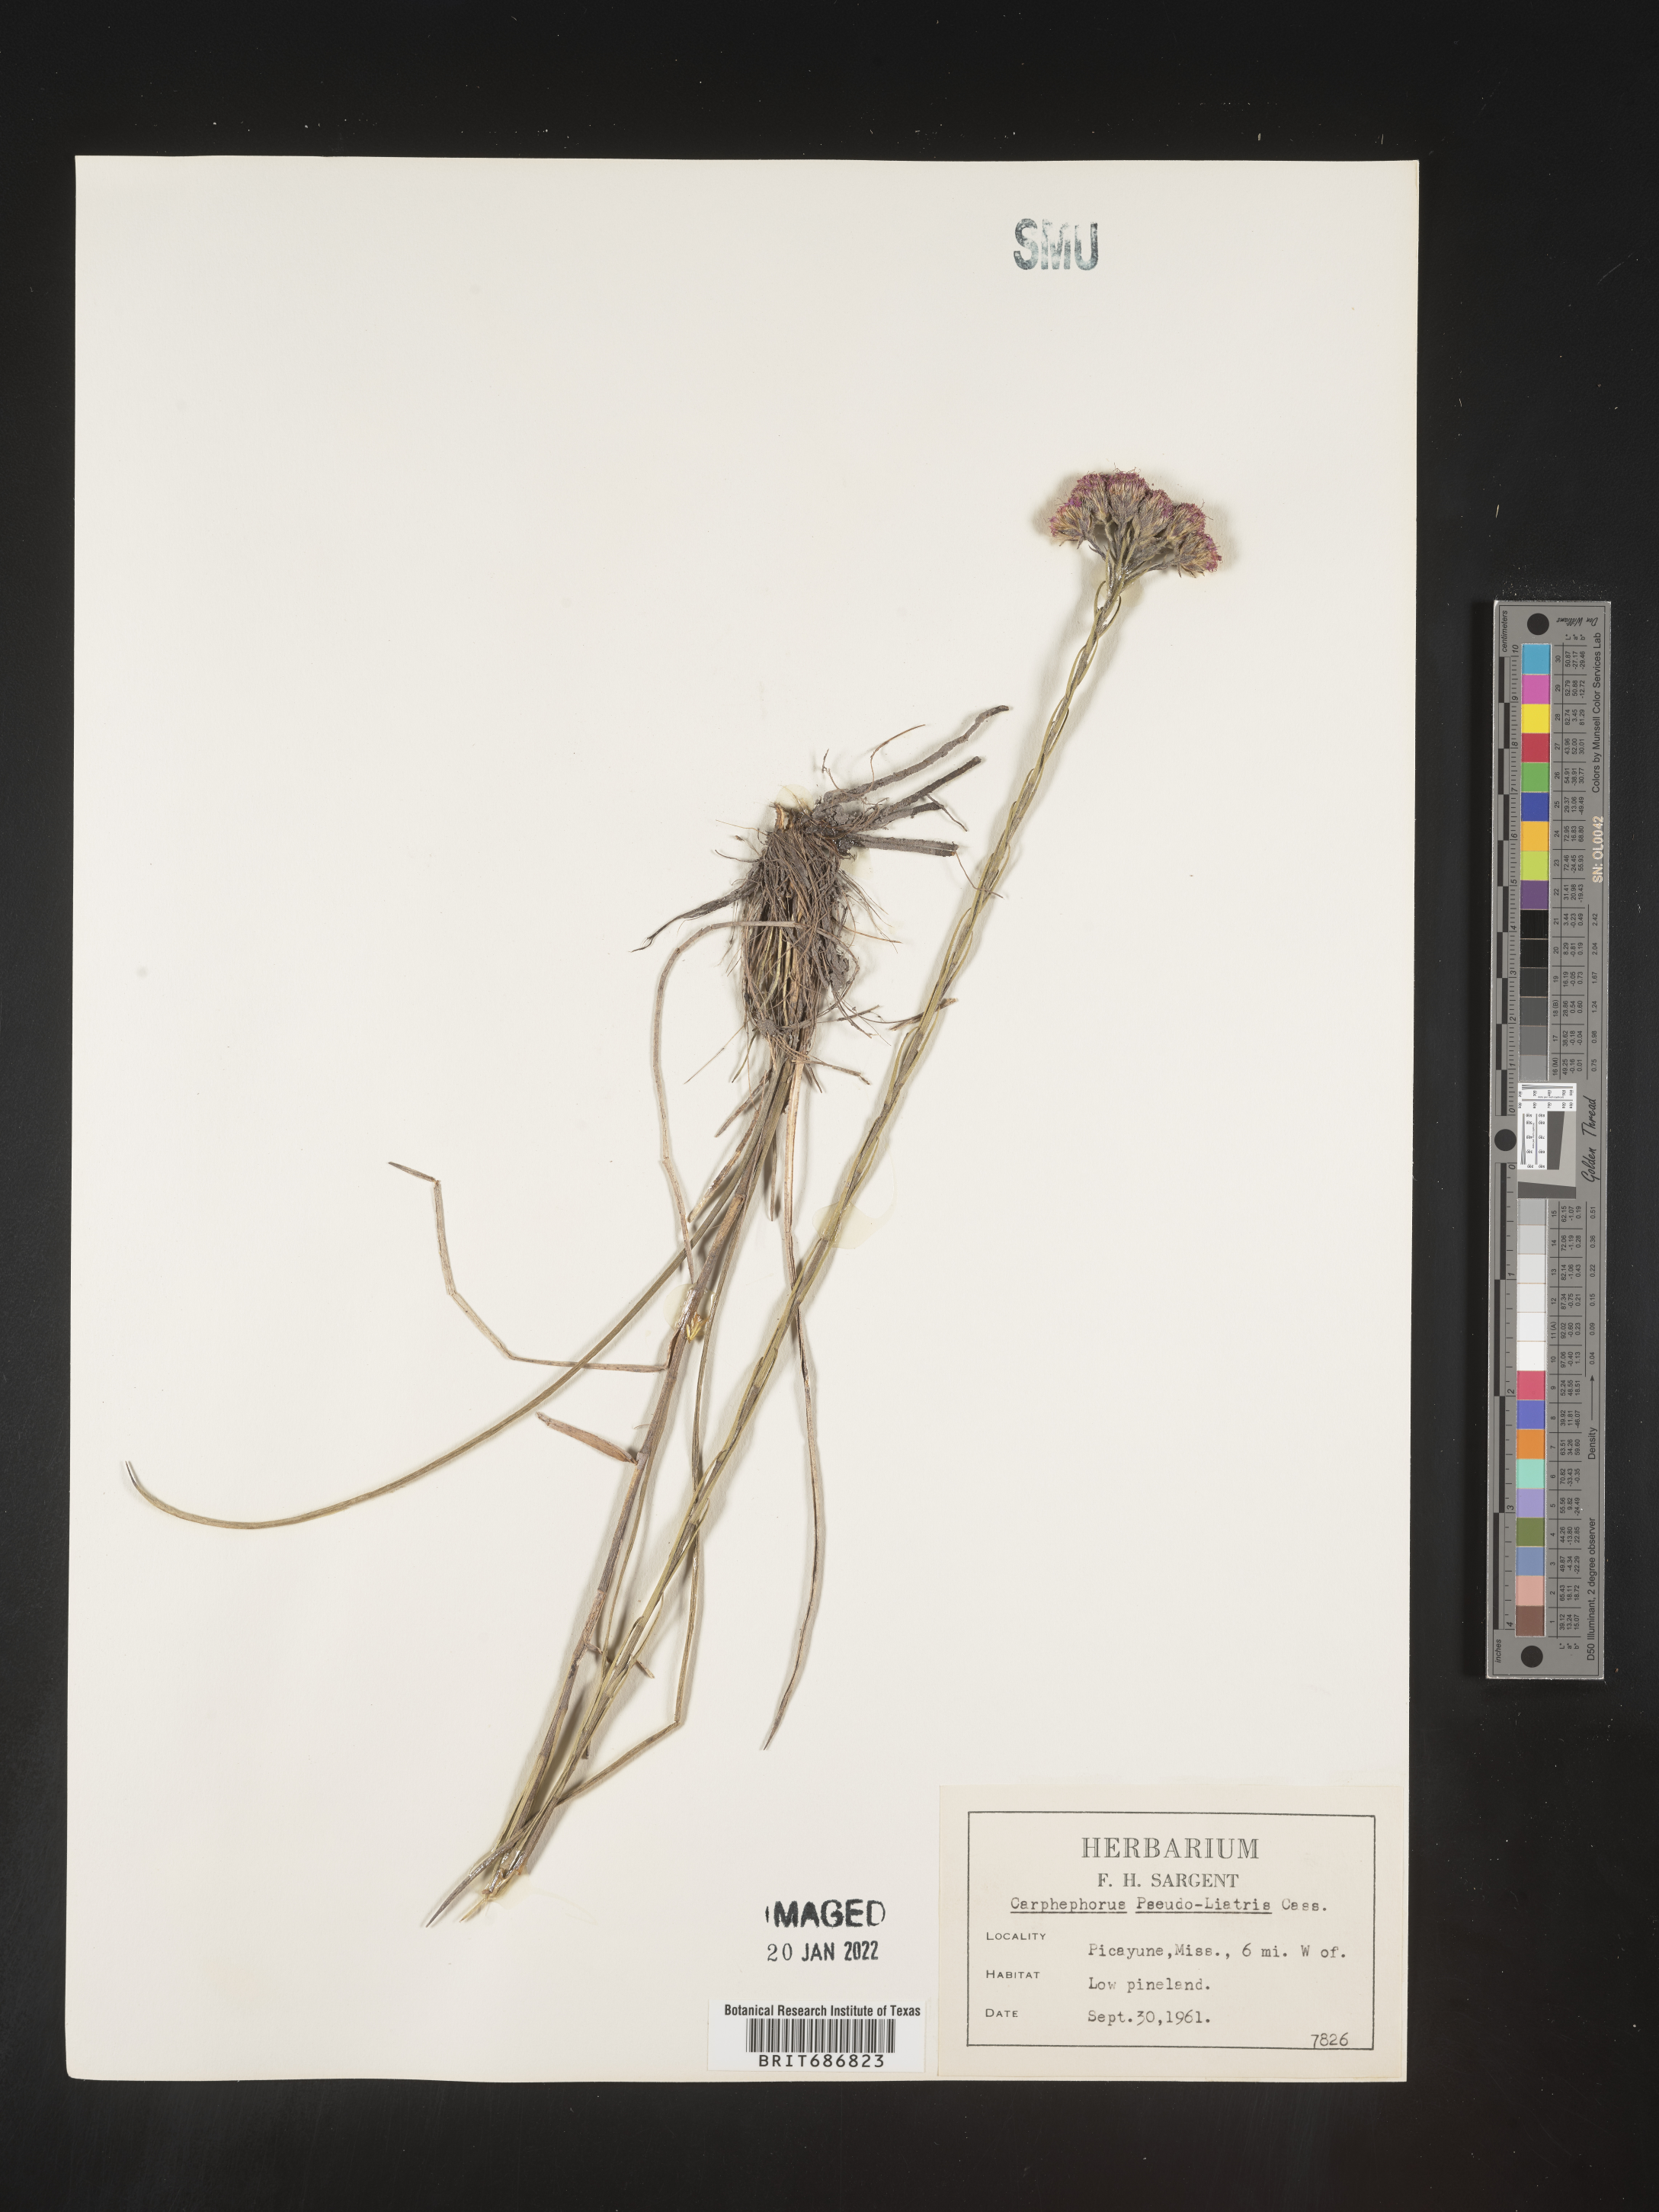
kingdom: Plantae
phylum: Tracheophyta
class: Magnoliopsida
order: Asterales
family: Asteraceae
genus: Carphephorus
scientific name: Carphephorus pseudoliatris
